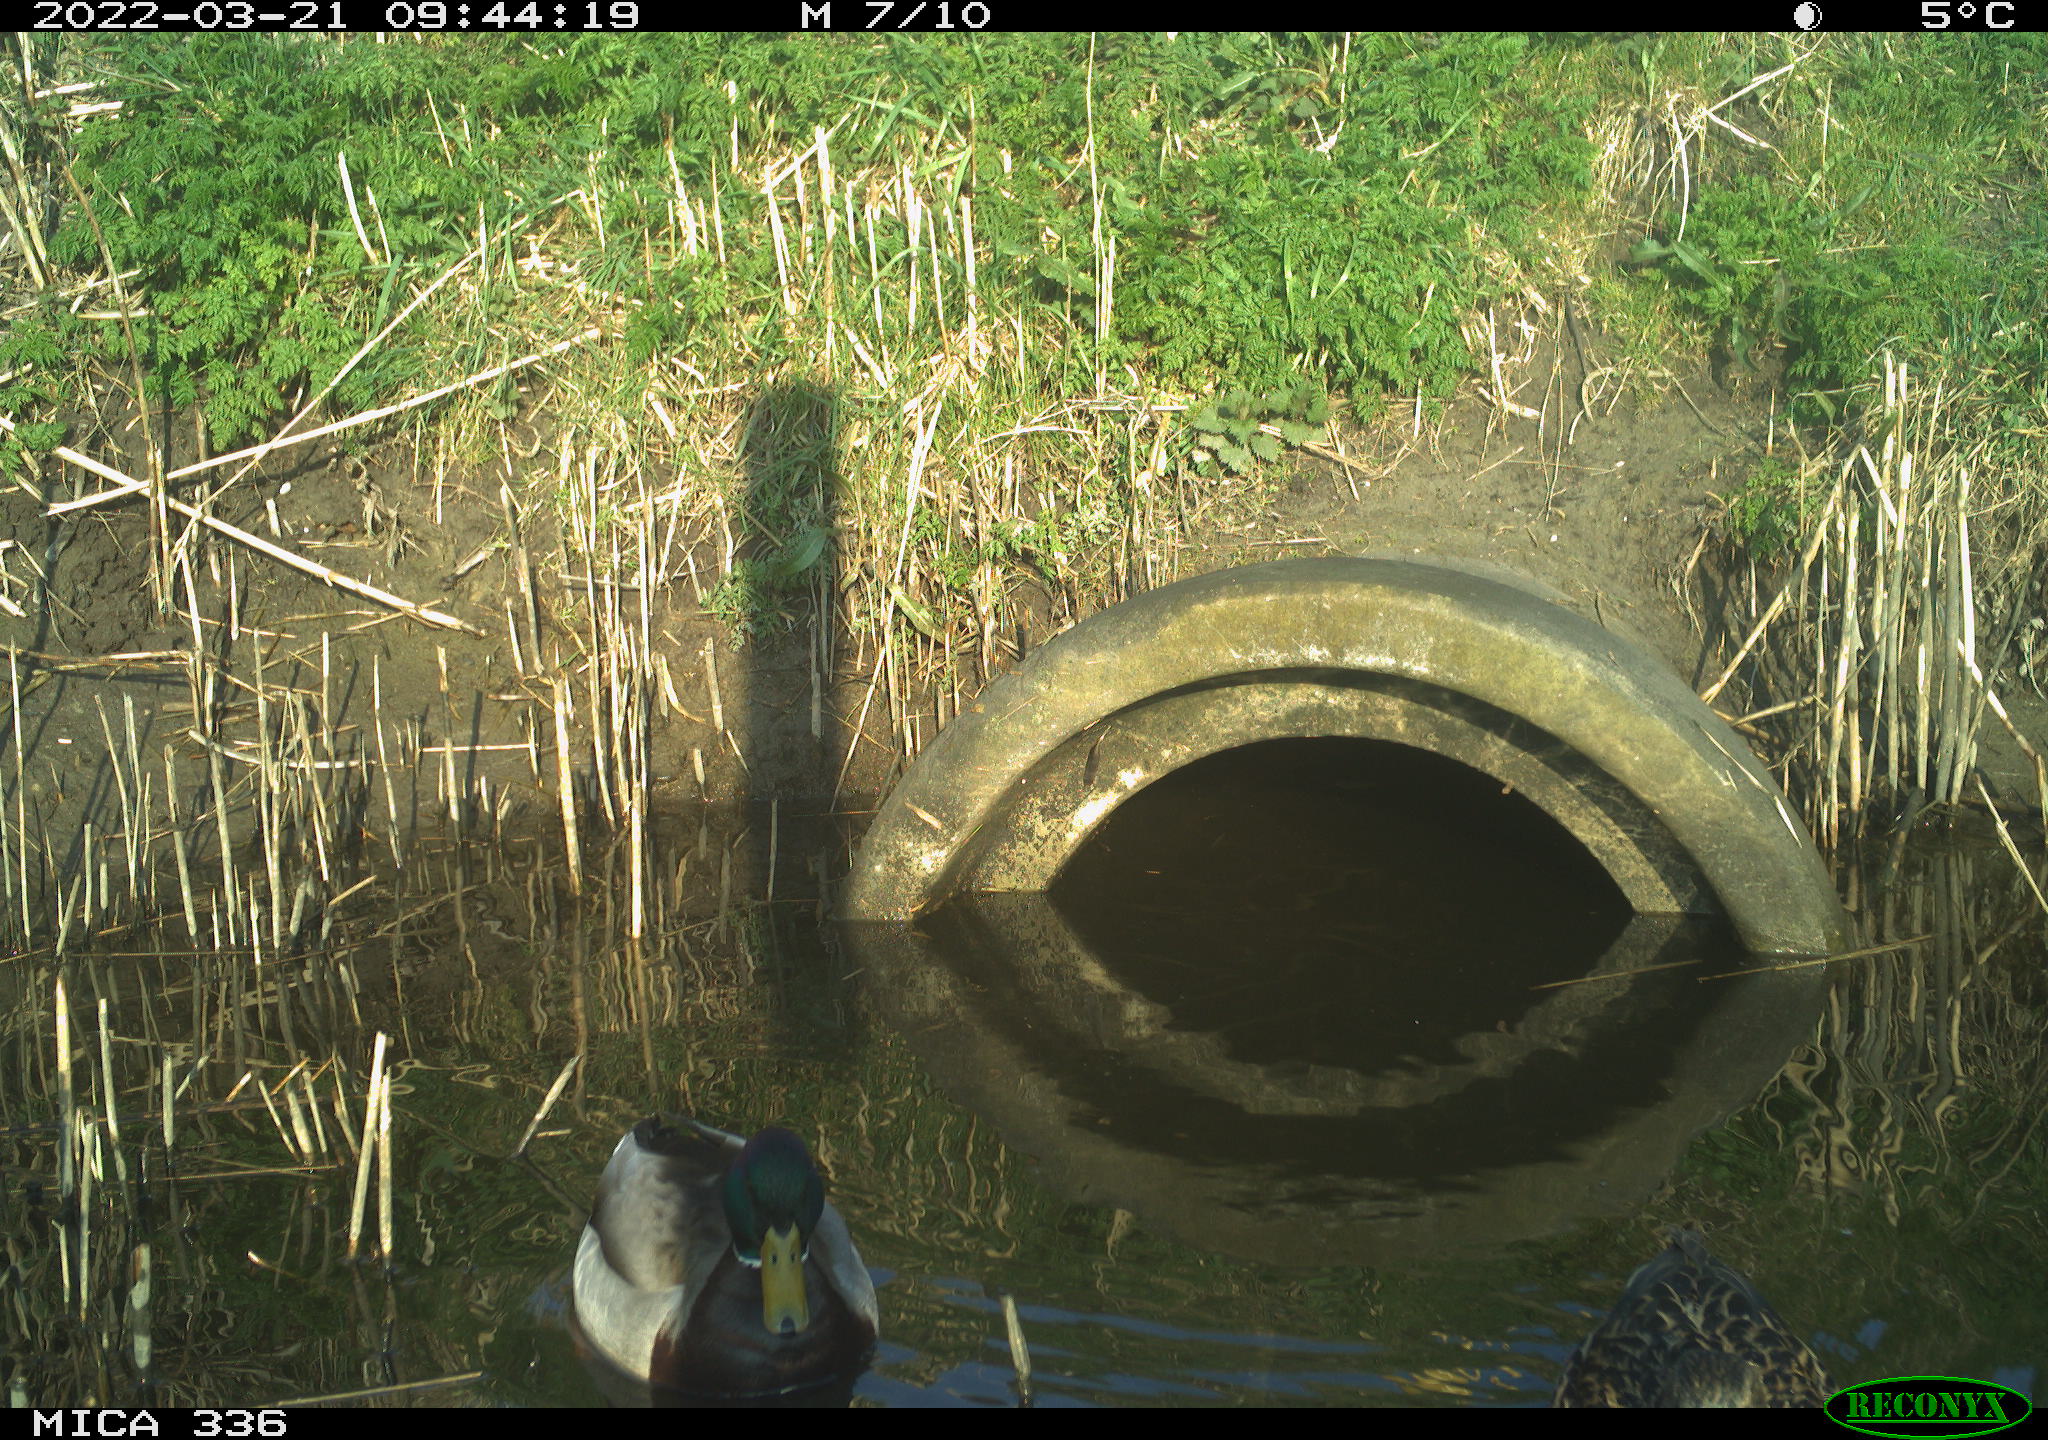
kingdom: Animalia
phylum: Chordata
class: Aves
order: Anseriformes
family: Anatidae
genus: Anas
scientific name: Anas platyrhynchos
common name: Mallard
